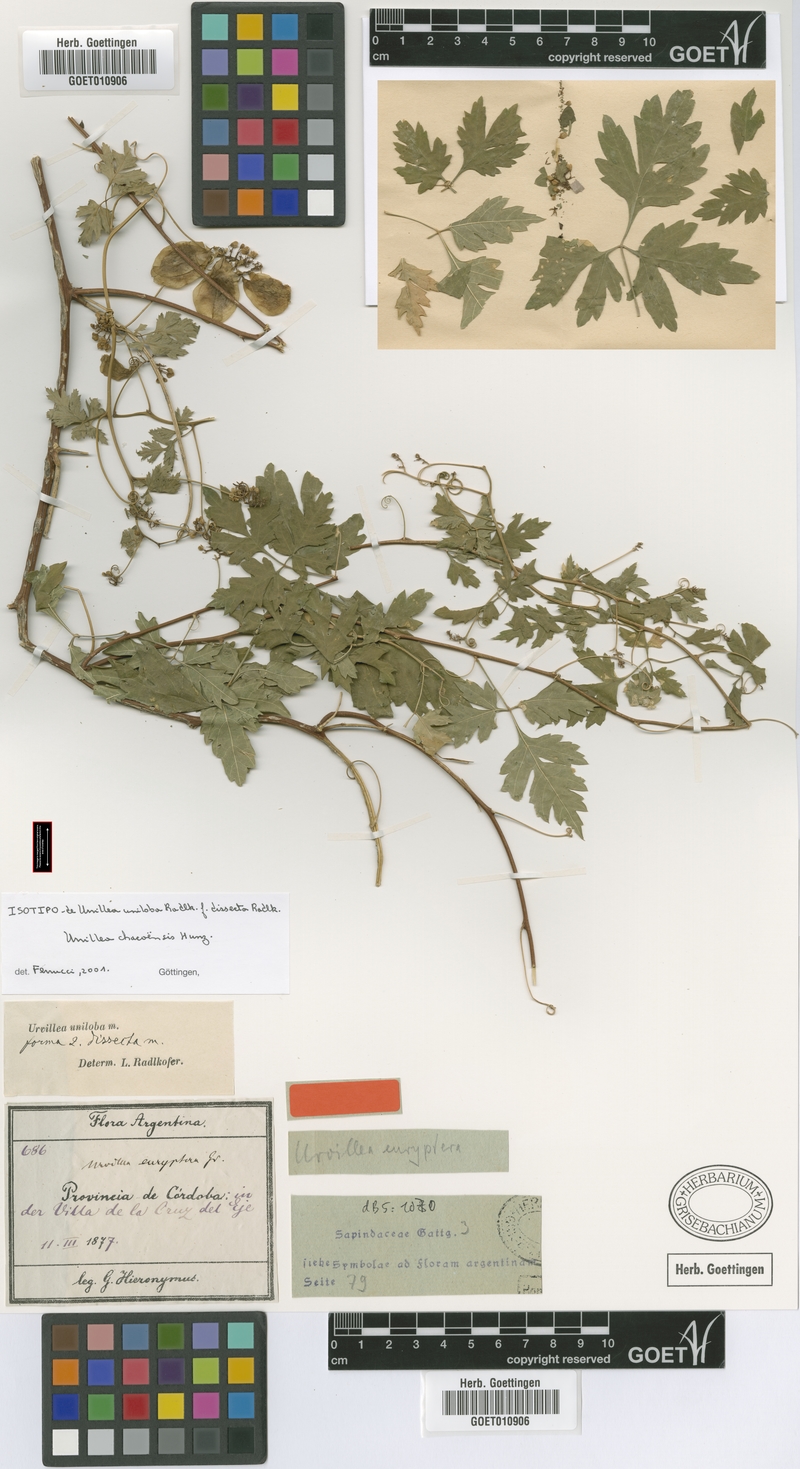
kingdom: Plantae
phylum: Tracheophyta
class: Magnoliopsida
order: Sapindales
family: Sapindaceae
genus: Urvillea
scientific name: Urvillea chacoensis
